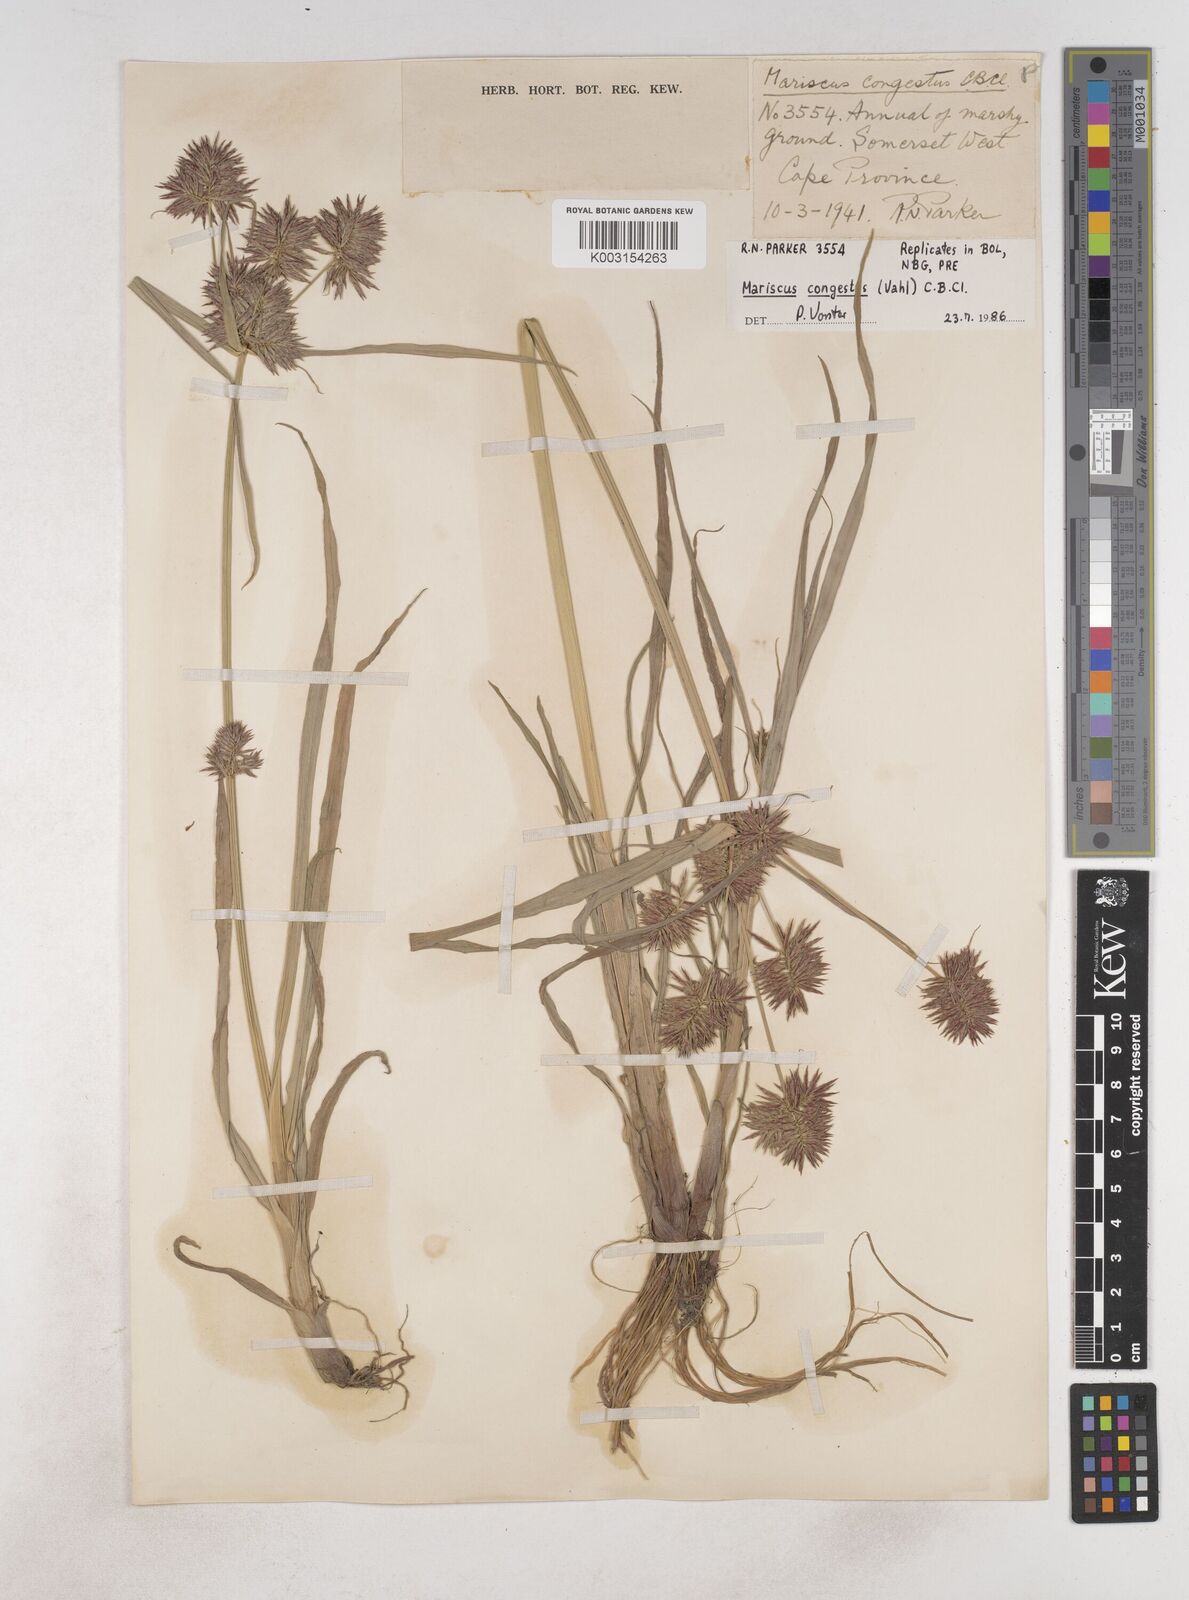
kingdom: Plantae
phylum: Tracheophyta
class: Liliopsida
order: Poales
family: Cyperaceae
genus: Cyperus
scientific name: Cyperus congestus
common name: Dense flat sedge
